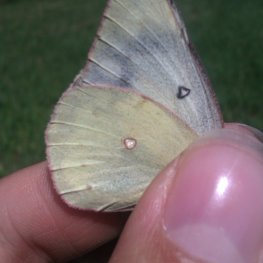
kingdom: Animalia
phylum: Arthropoda
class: Insecta
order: Lepidoptera
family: Pieridae
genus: Colias
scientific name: Colias philodice
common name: Clouded Sulphur
